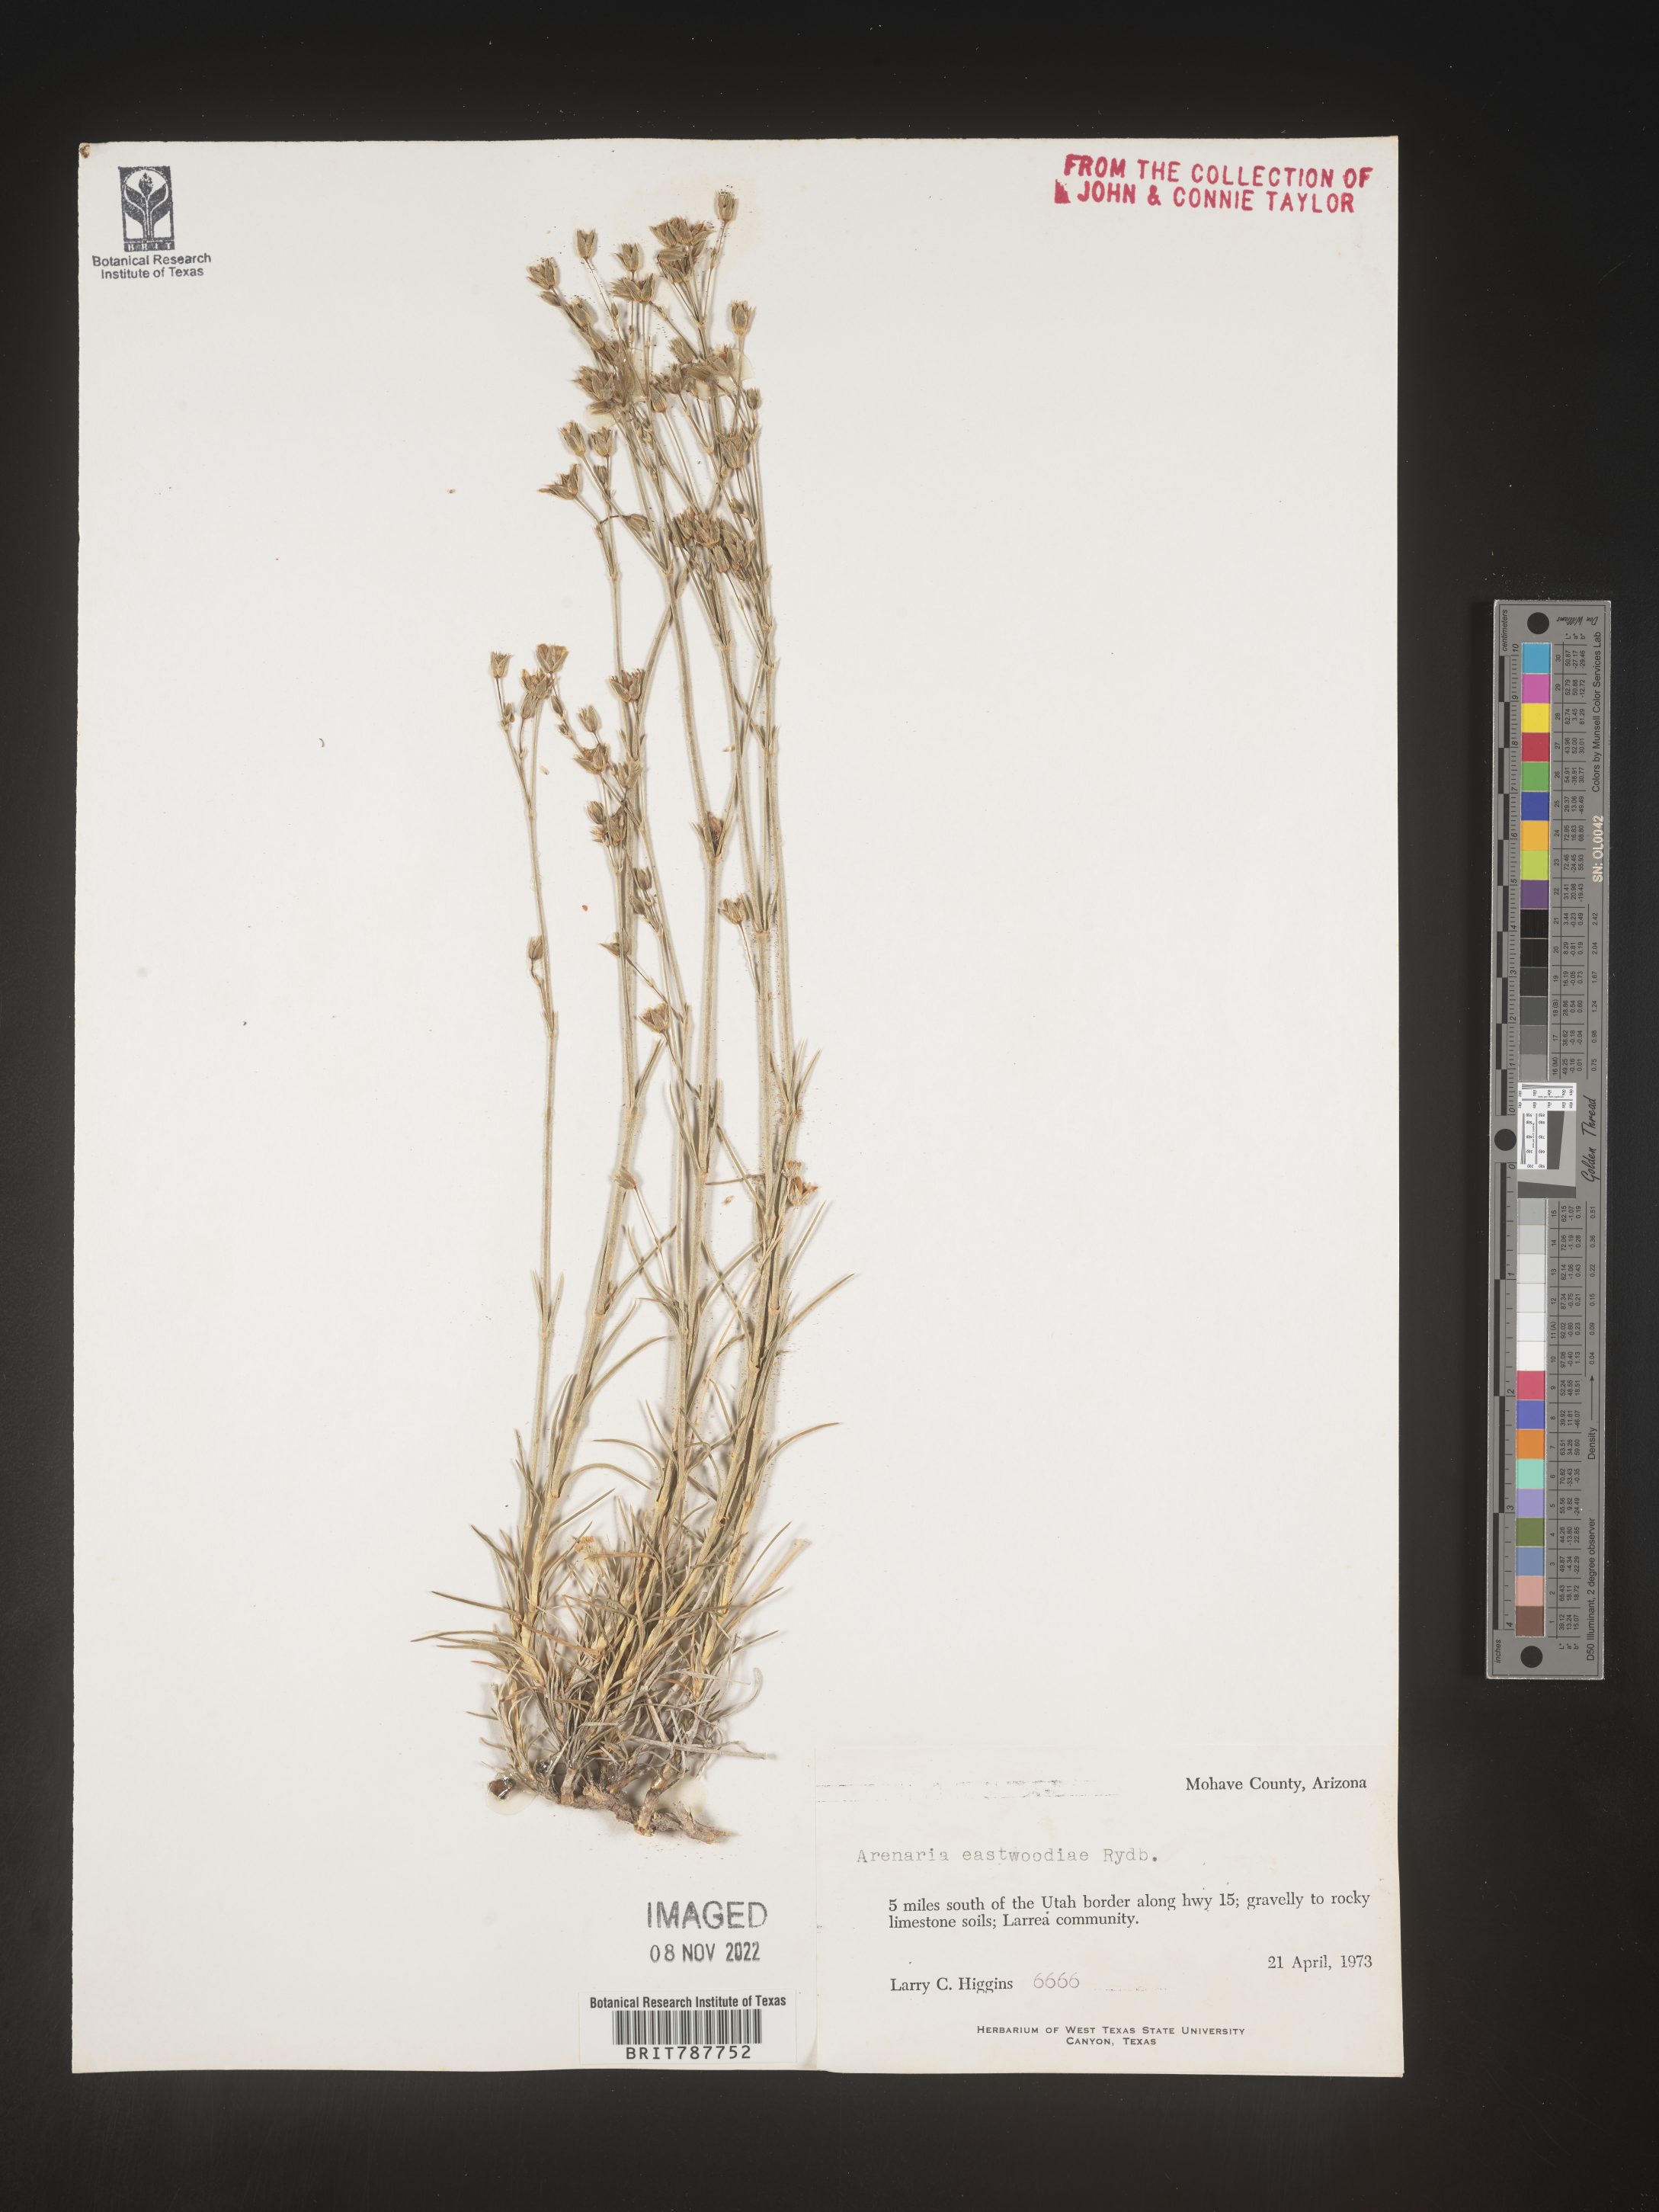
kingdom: Plantae
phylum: Tracheophyta
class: Magnoliopsida
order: Caryophyllales
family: Caryophyllaceae
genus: Arenaria
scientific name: Arenaria
